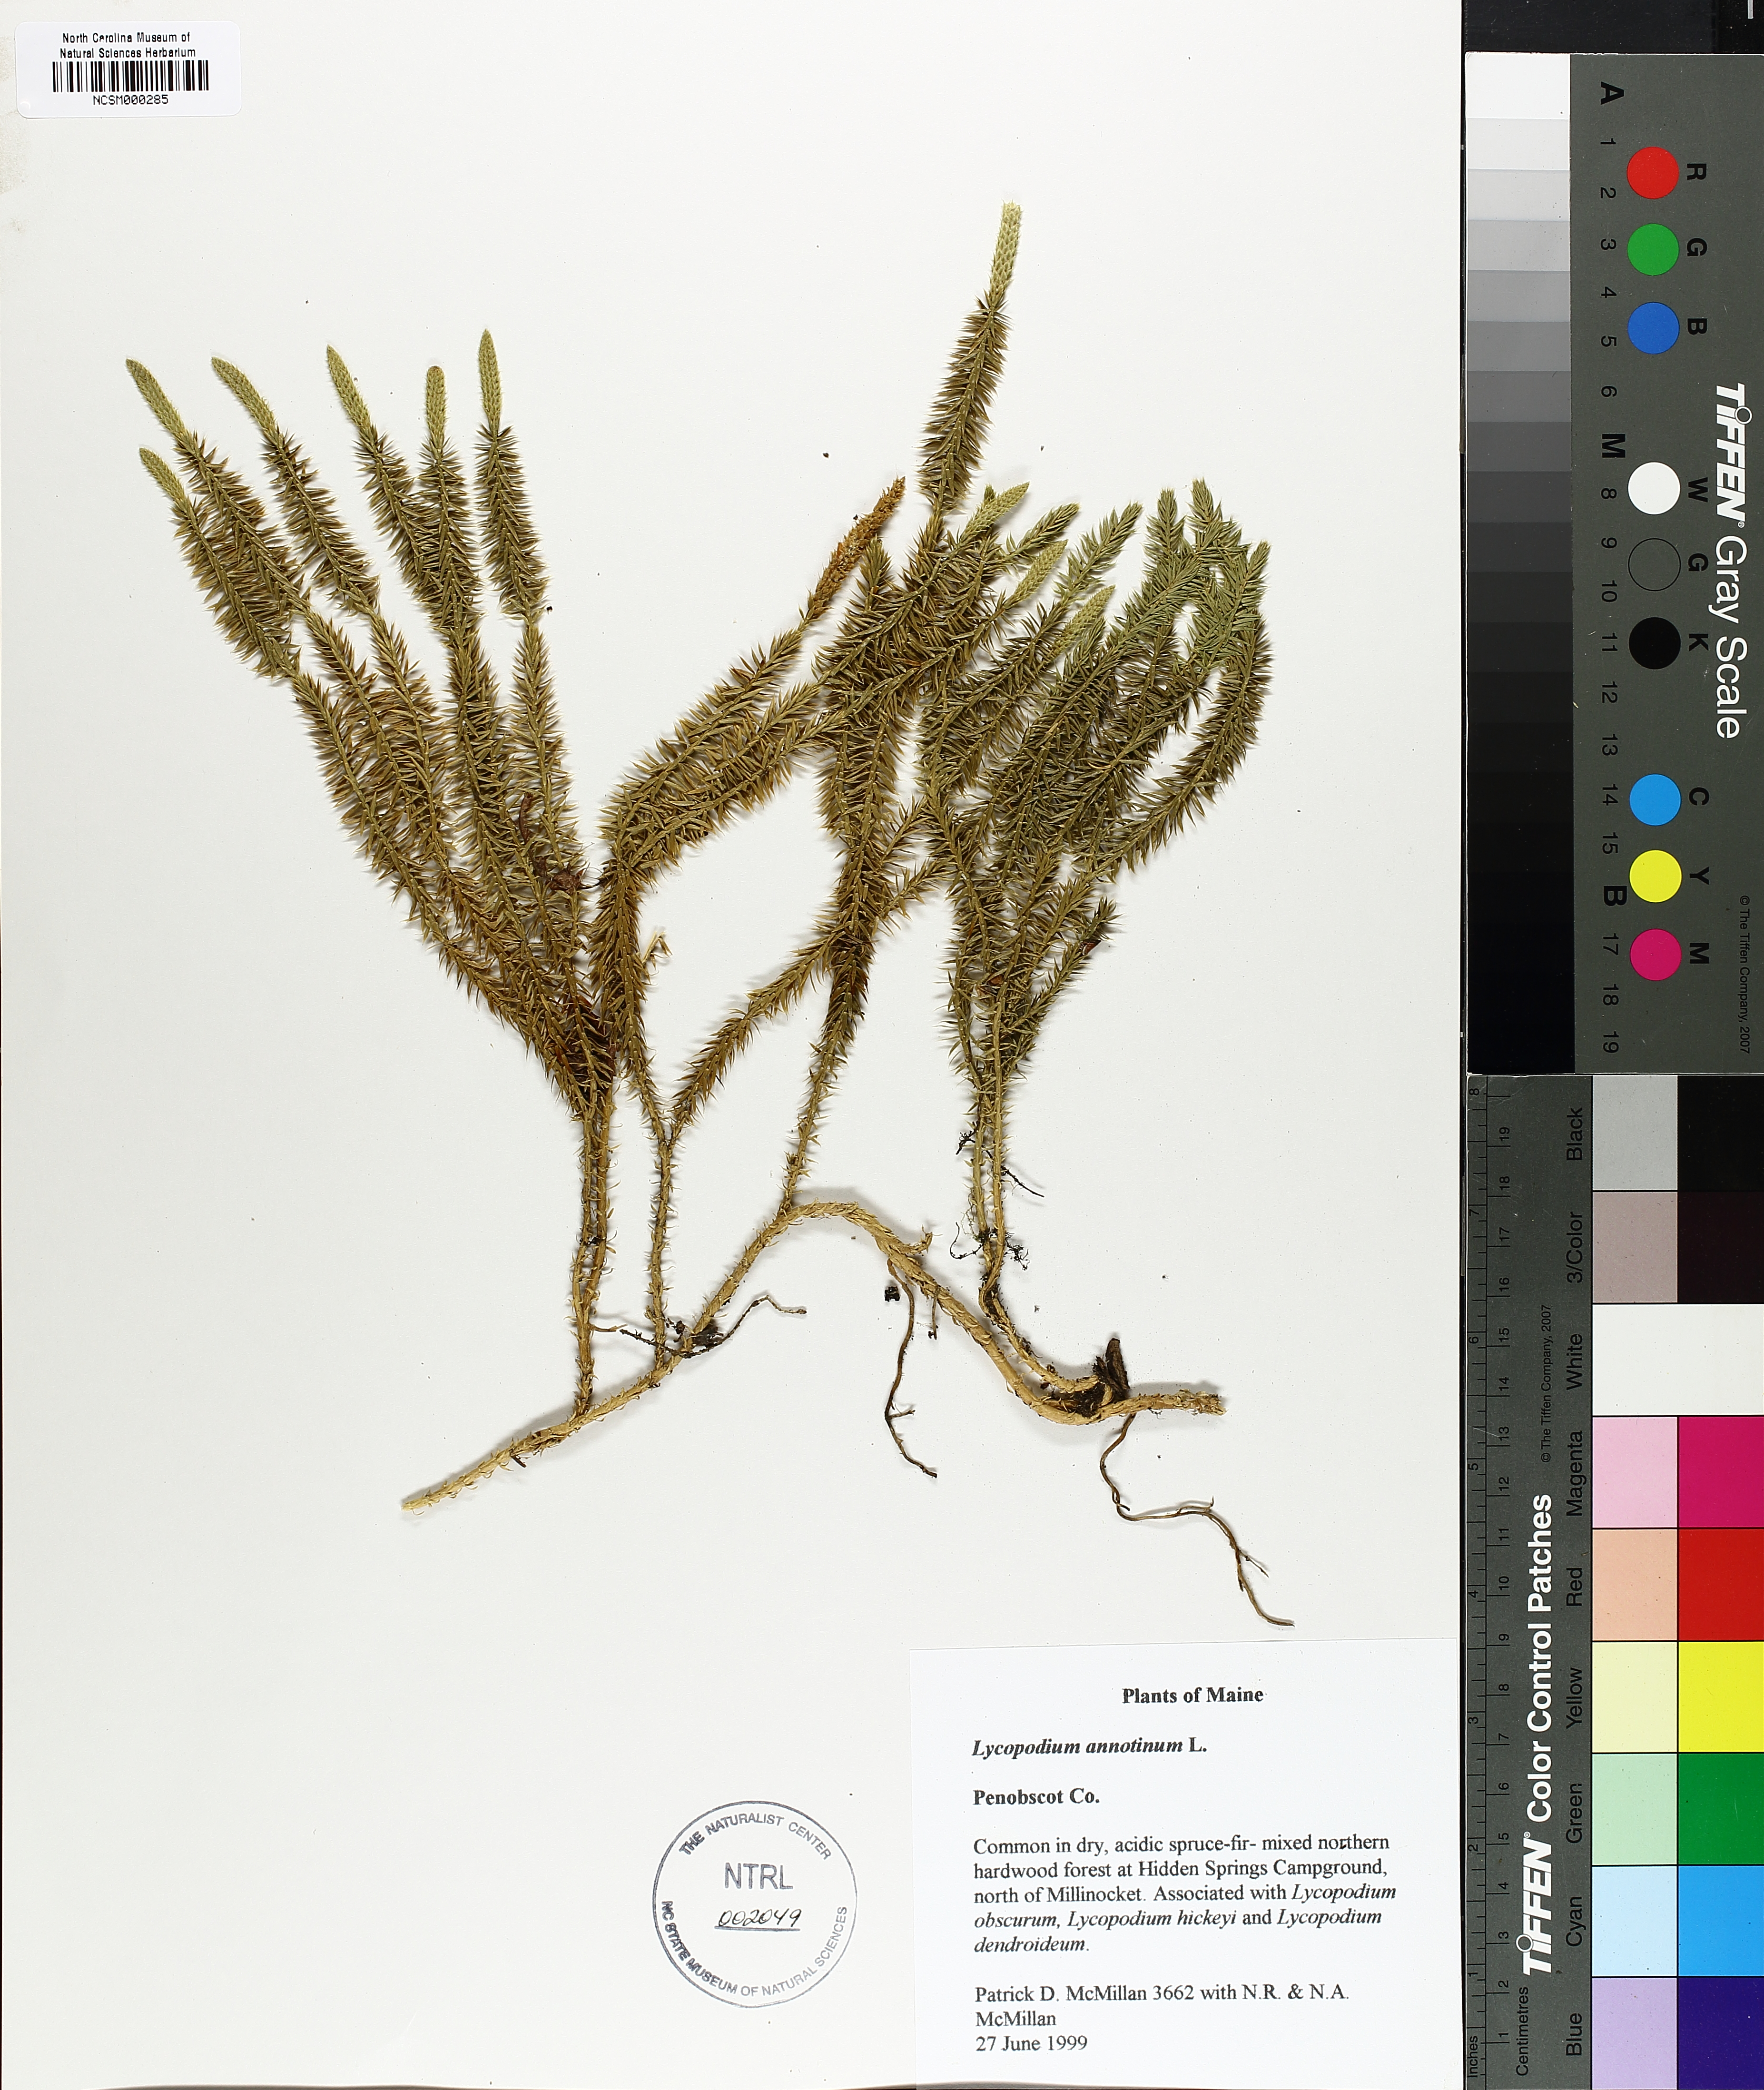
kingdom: Plantae
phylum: Tracheophyta
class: Lycopodiopsida
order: Lycopodiales
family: Lycopodiaceae
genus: Spinulum
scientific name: Spinulum annotinum
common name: Interrupted club-moss
